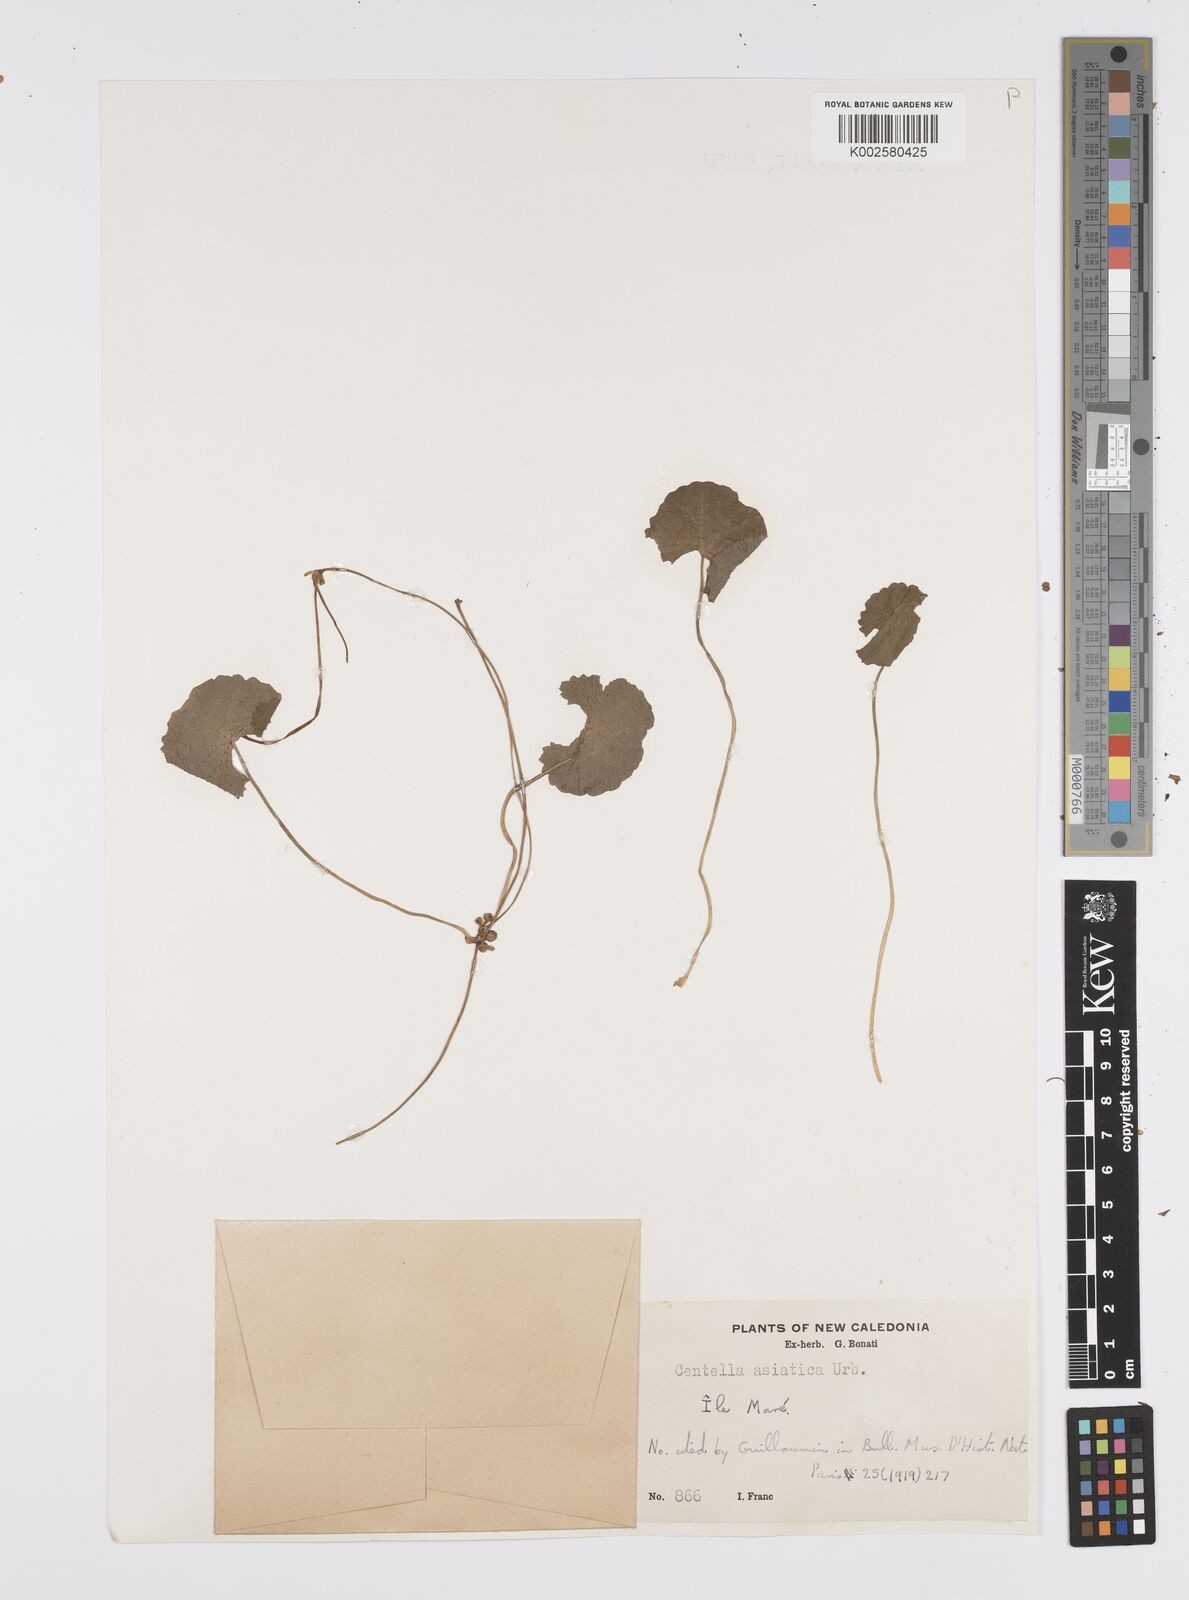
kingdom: Plantae
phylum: Tracheophyta
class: Magnoliopsida
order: Apiales
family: Apiaceae
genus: Centella
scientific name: Centella asiatica
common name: Spadeleaf
